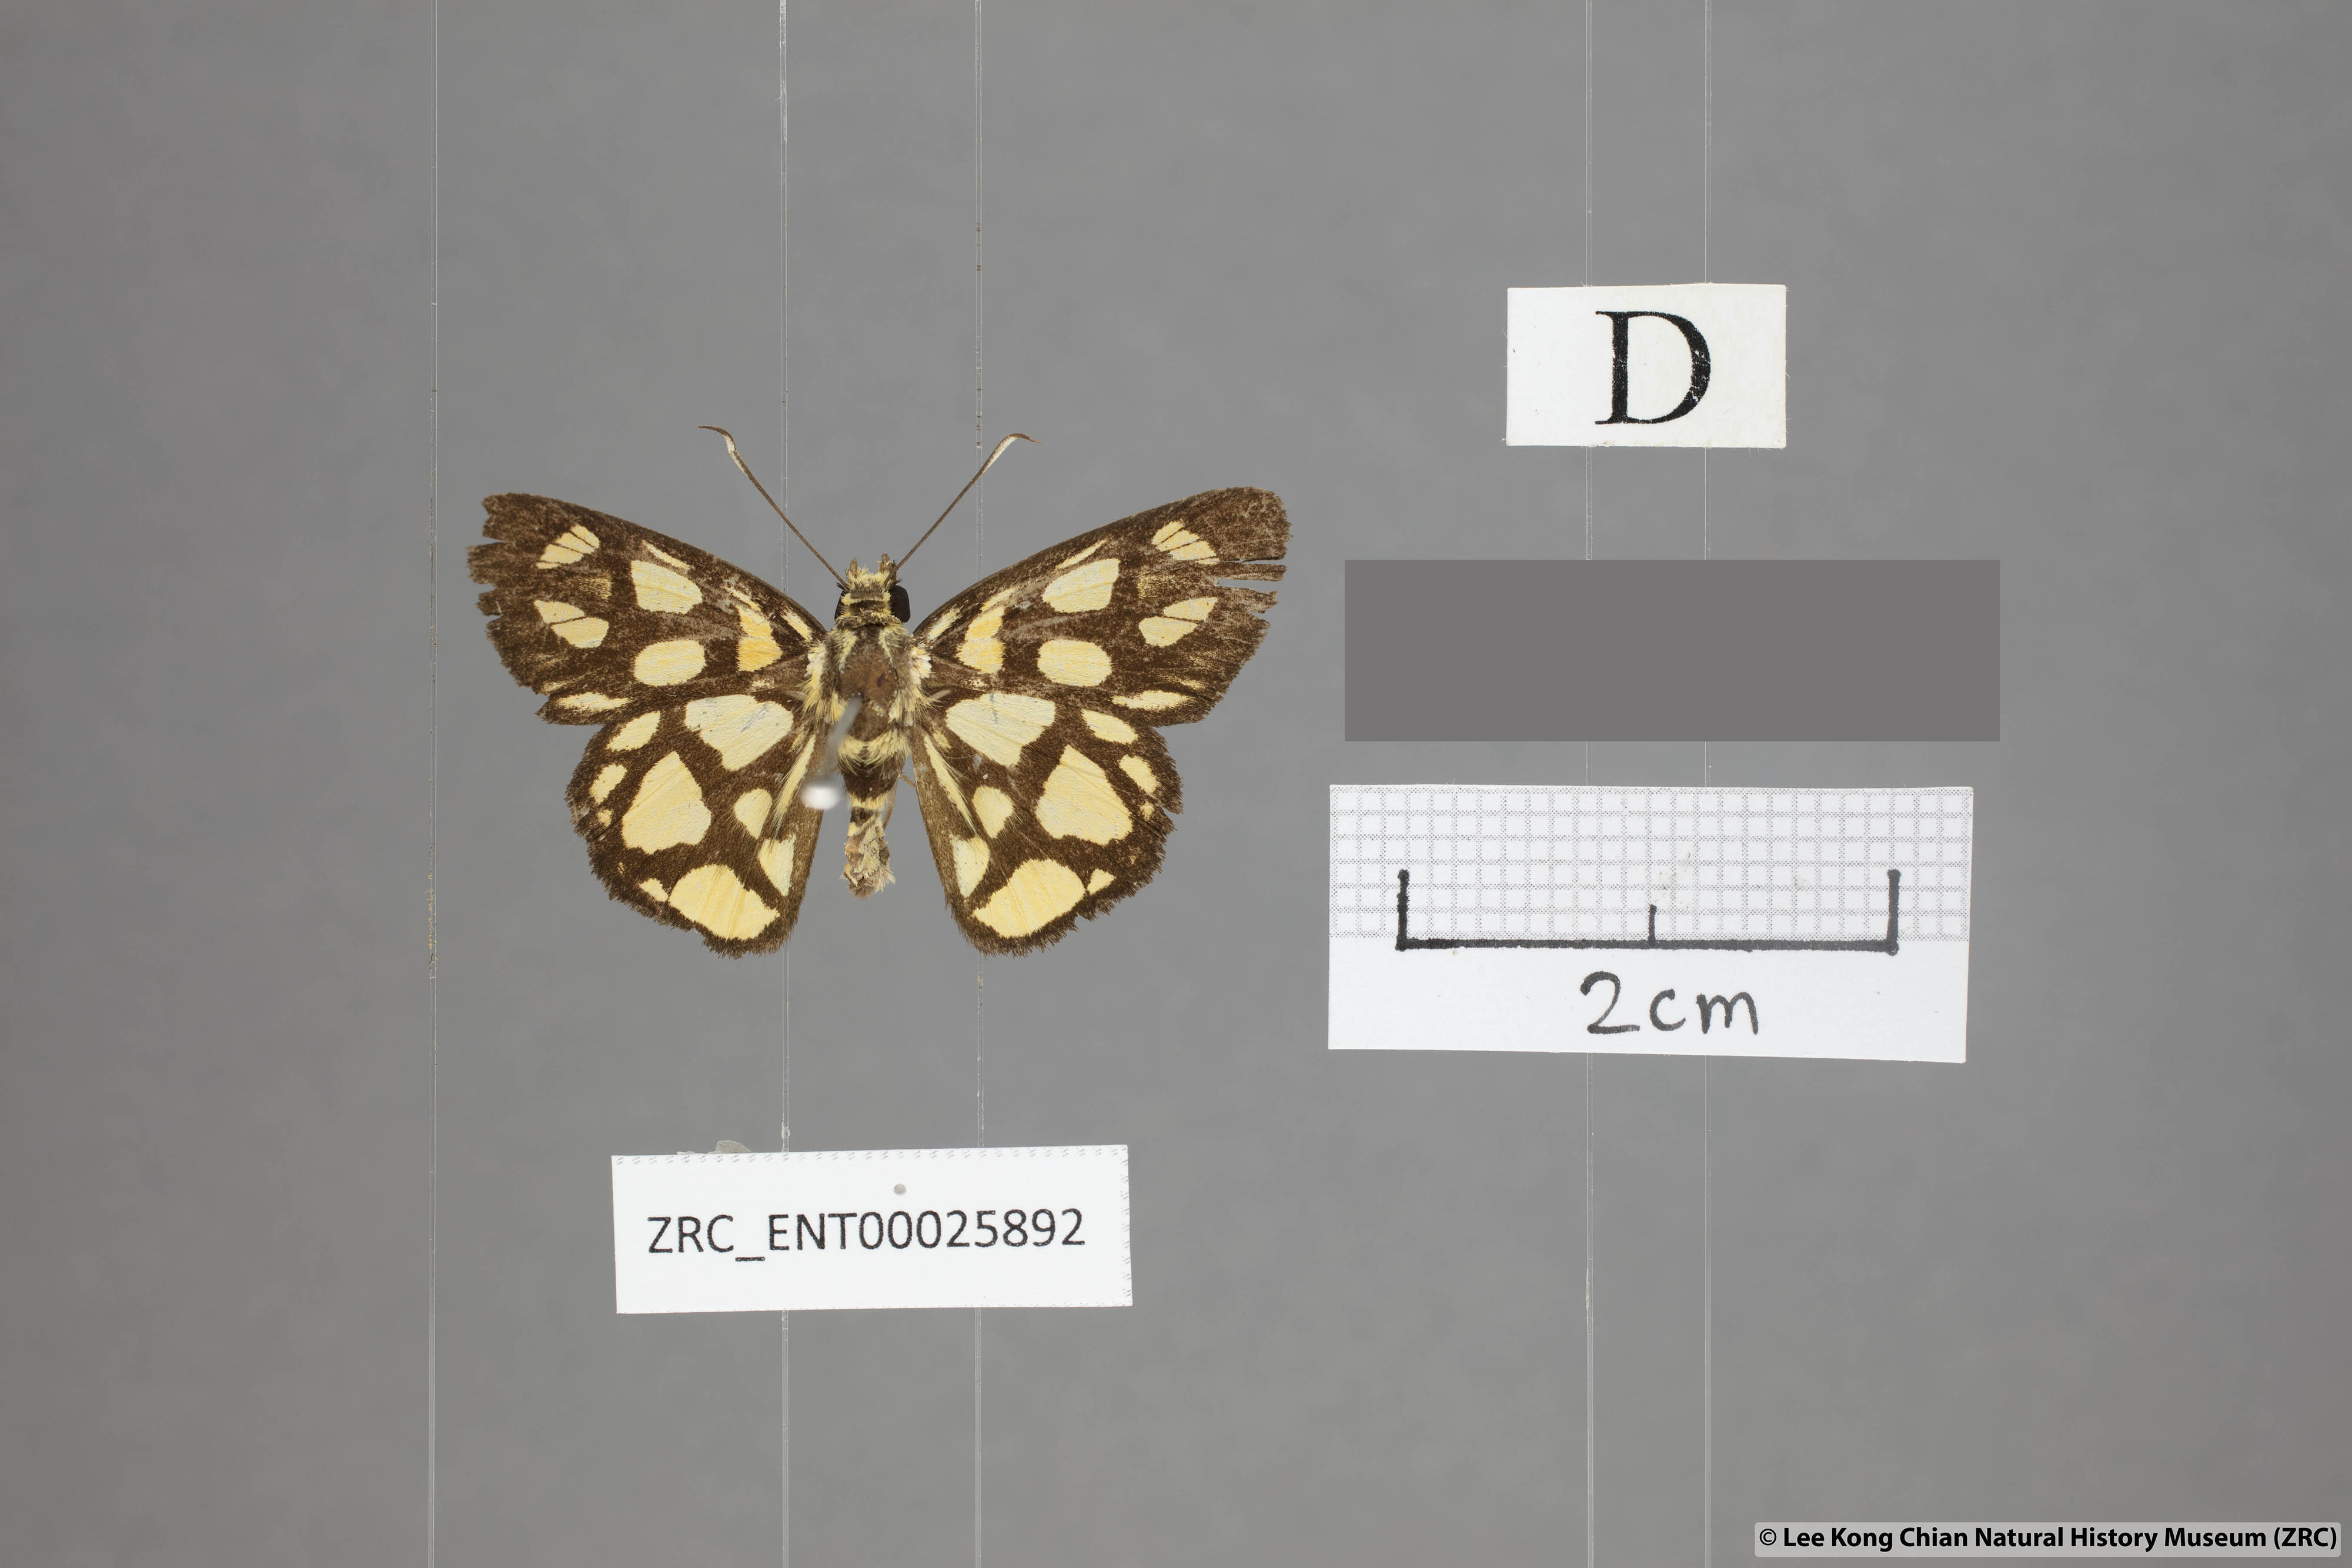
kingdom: Animalia
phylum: Arthropoda
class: Insecta
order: Lepidoptera
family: Hesperiidae
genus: Odina
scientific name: Odina hieroglyphica
